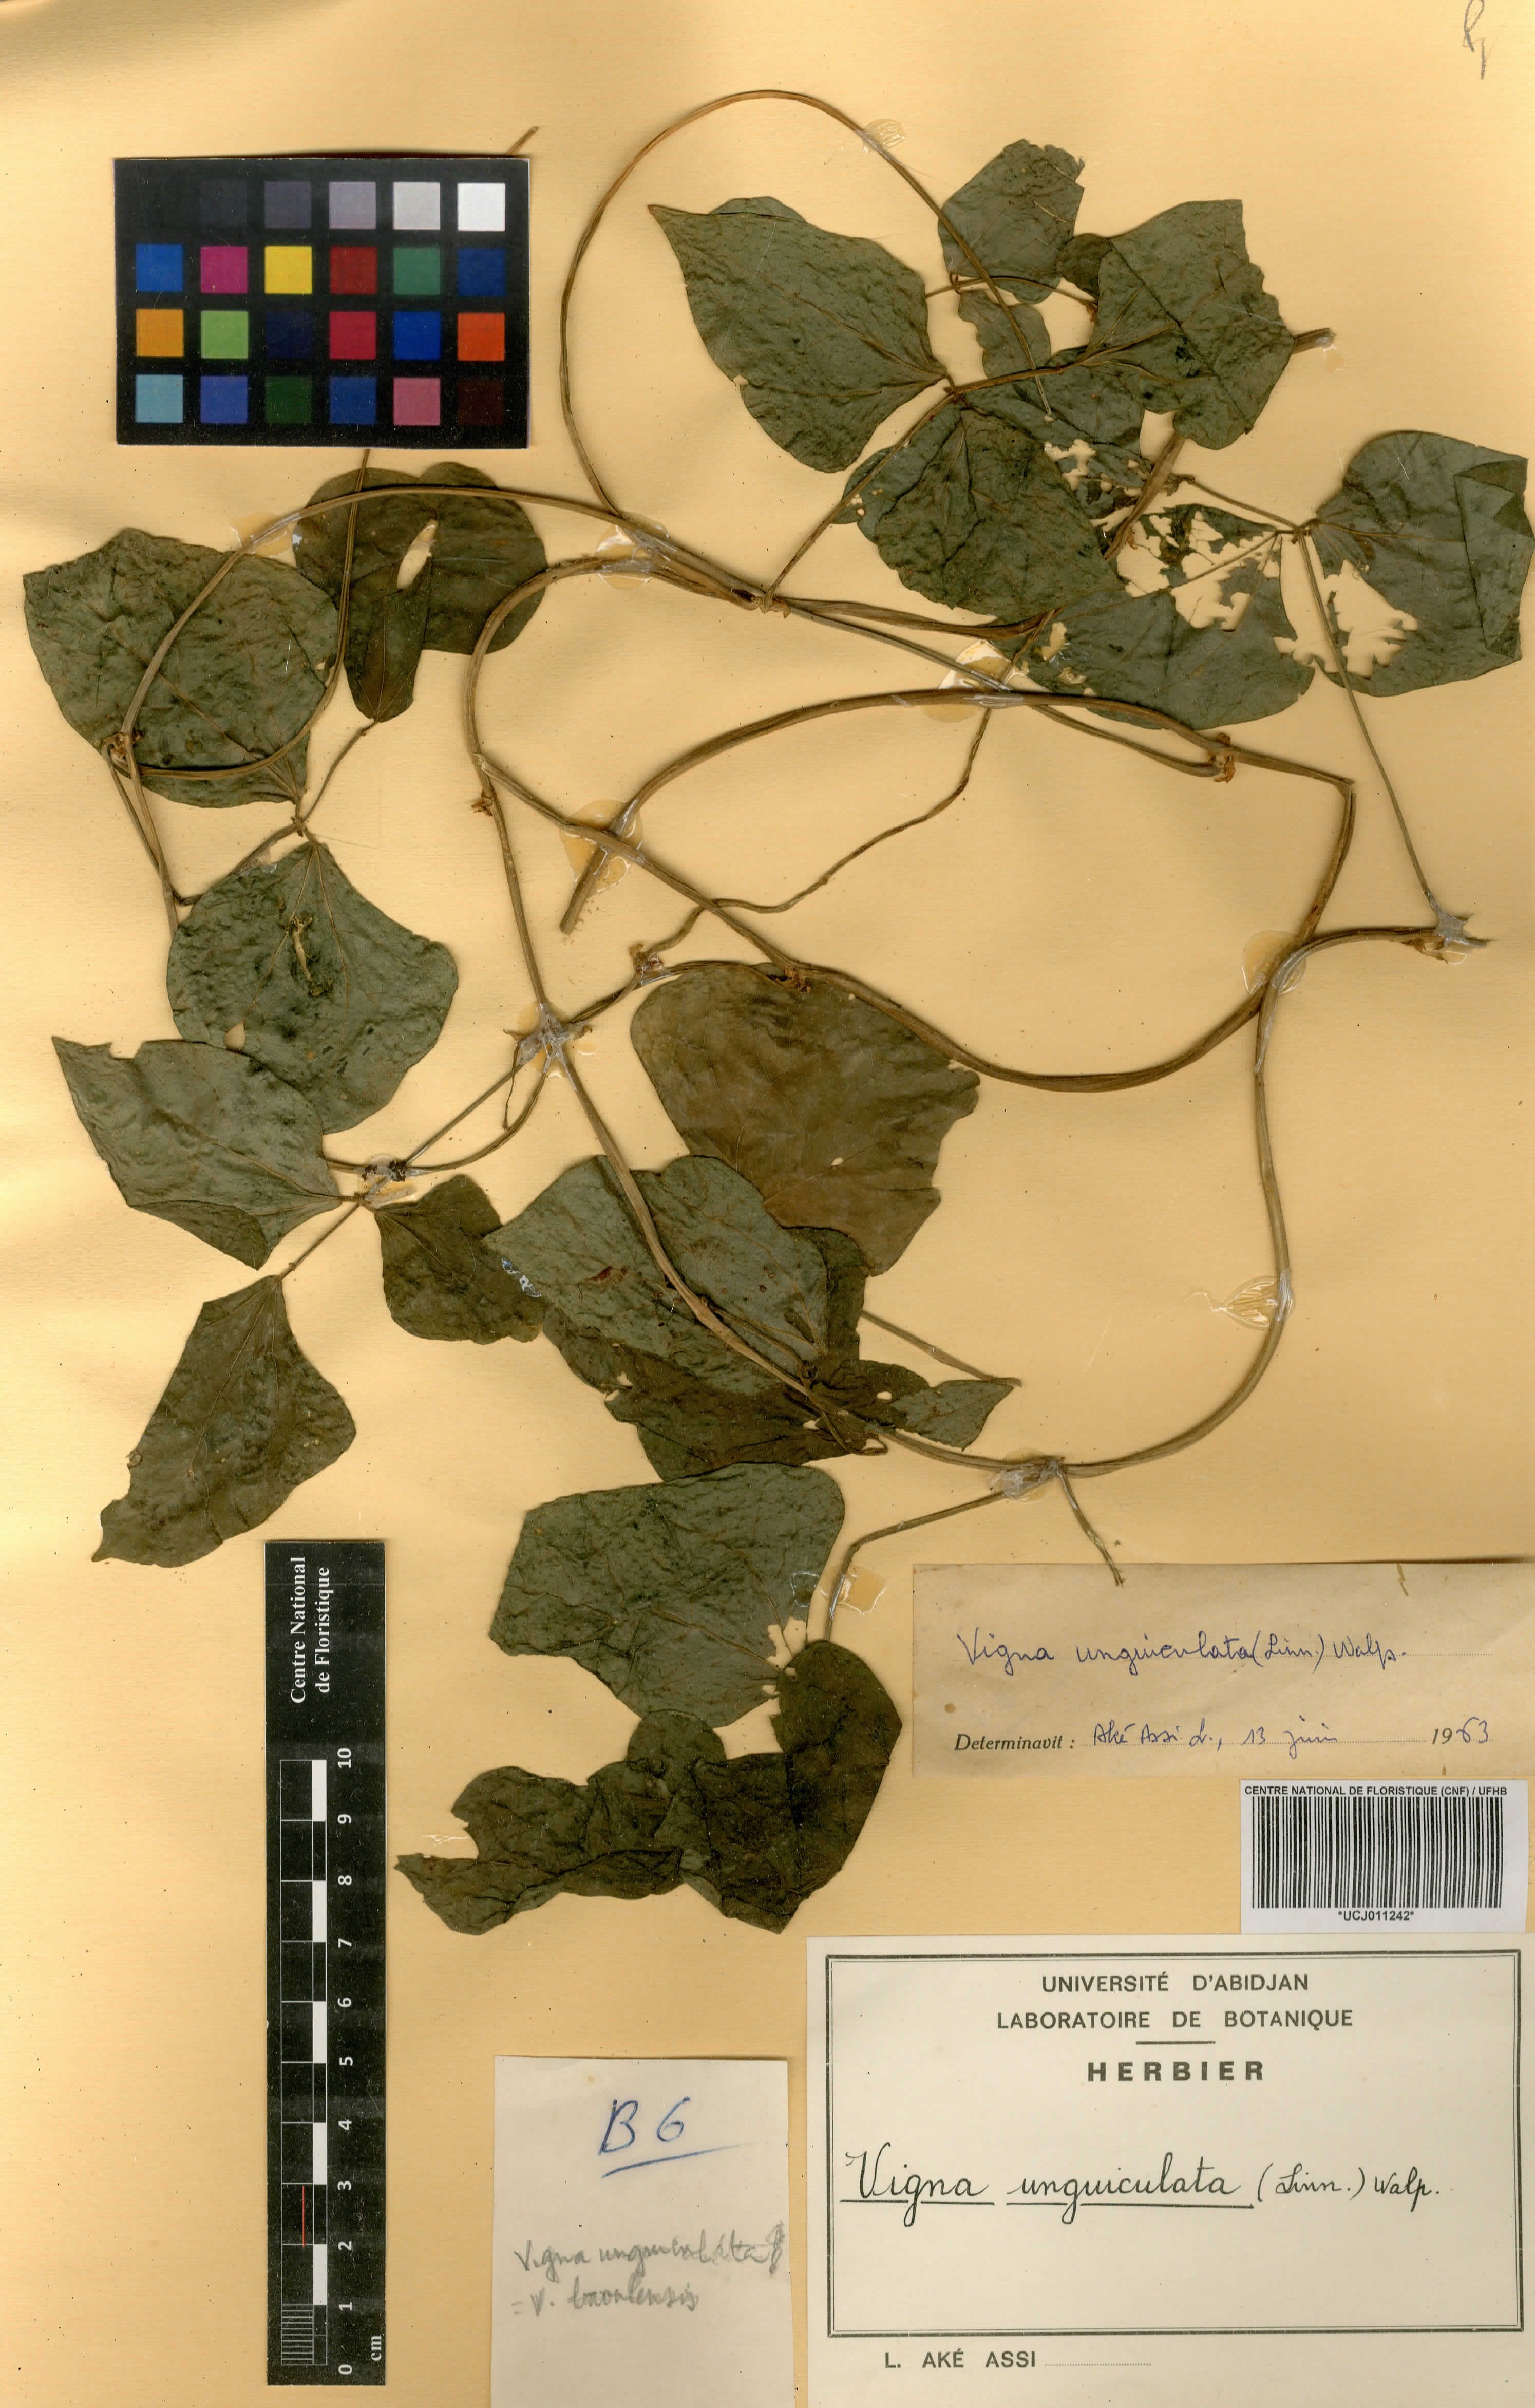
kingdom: Plantae
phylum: Tracheophyta
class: Magnoliopsida
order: Fabales
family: Fabaceae
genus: Vigna
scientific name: Vigna unguiculata
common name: Cowpea
